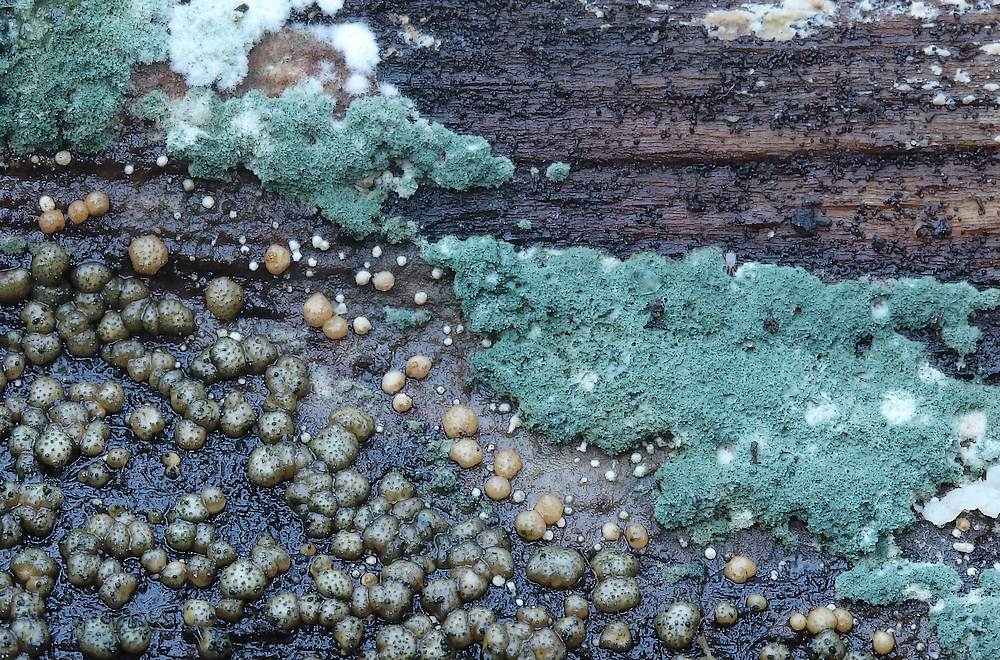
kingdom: Fungi
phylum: Ascomycota
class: Sordariomycetes
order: Hypocreales
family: Hypocreaceae
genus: Trichoderma
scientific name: Trichoderma strictipile
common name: grønprikket kødkerne
